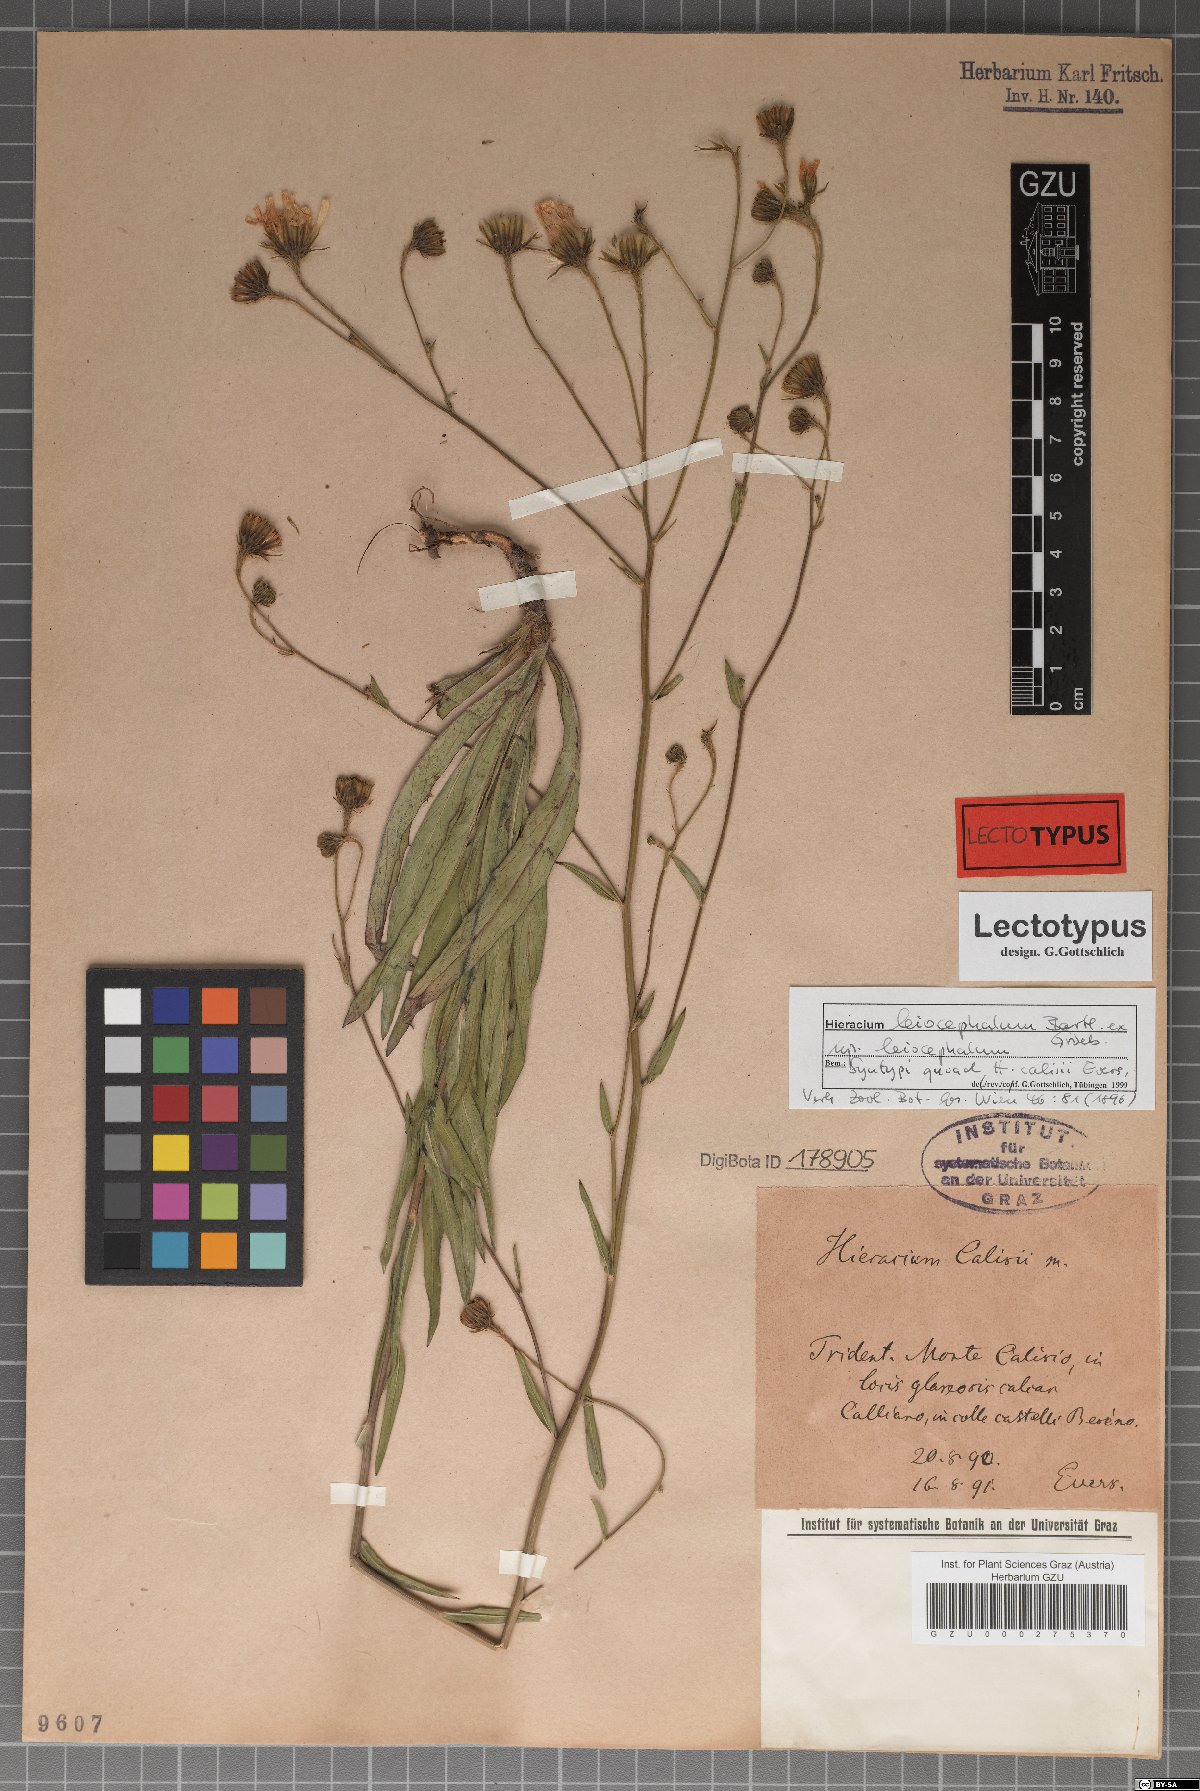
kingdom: Plantae
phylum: Tracheophyta
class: Magnoliopsida
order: Asterales
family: Asteraceae
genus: Hieracium
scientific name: Hieracium leiocephalum
